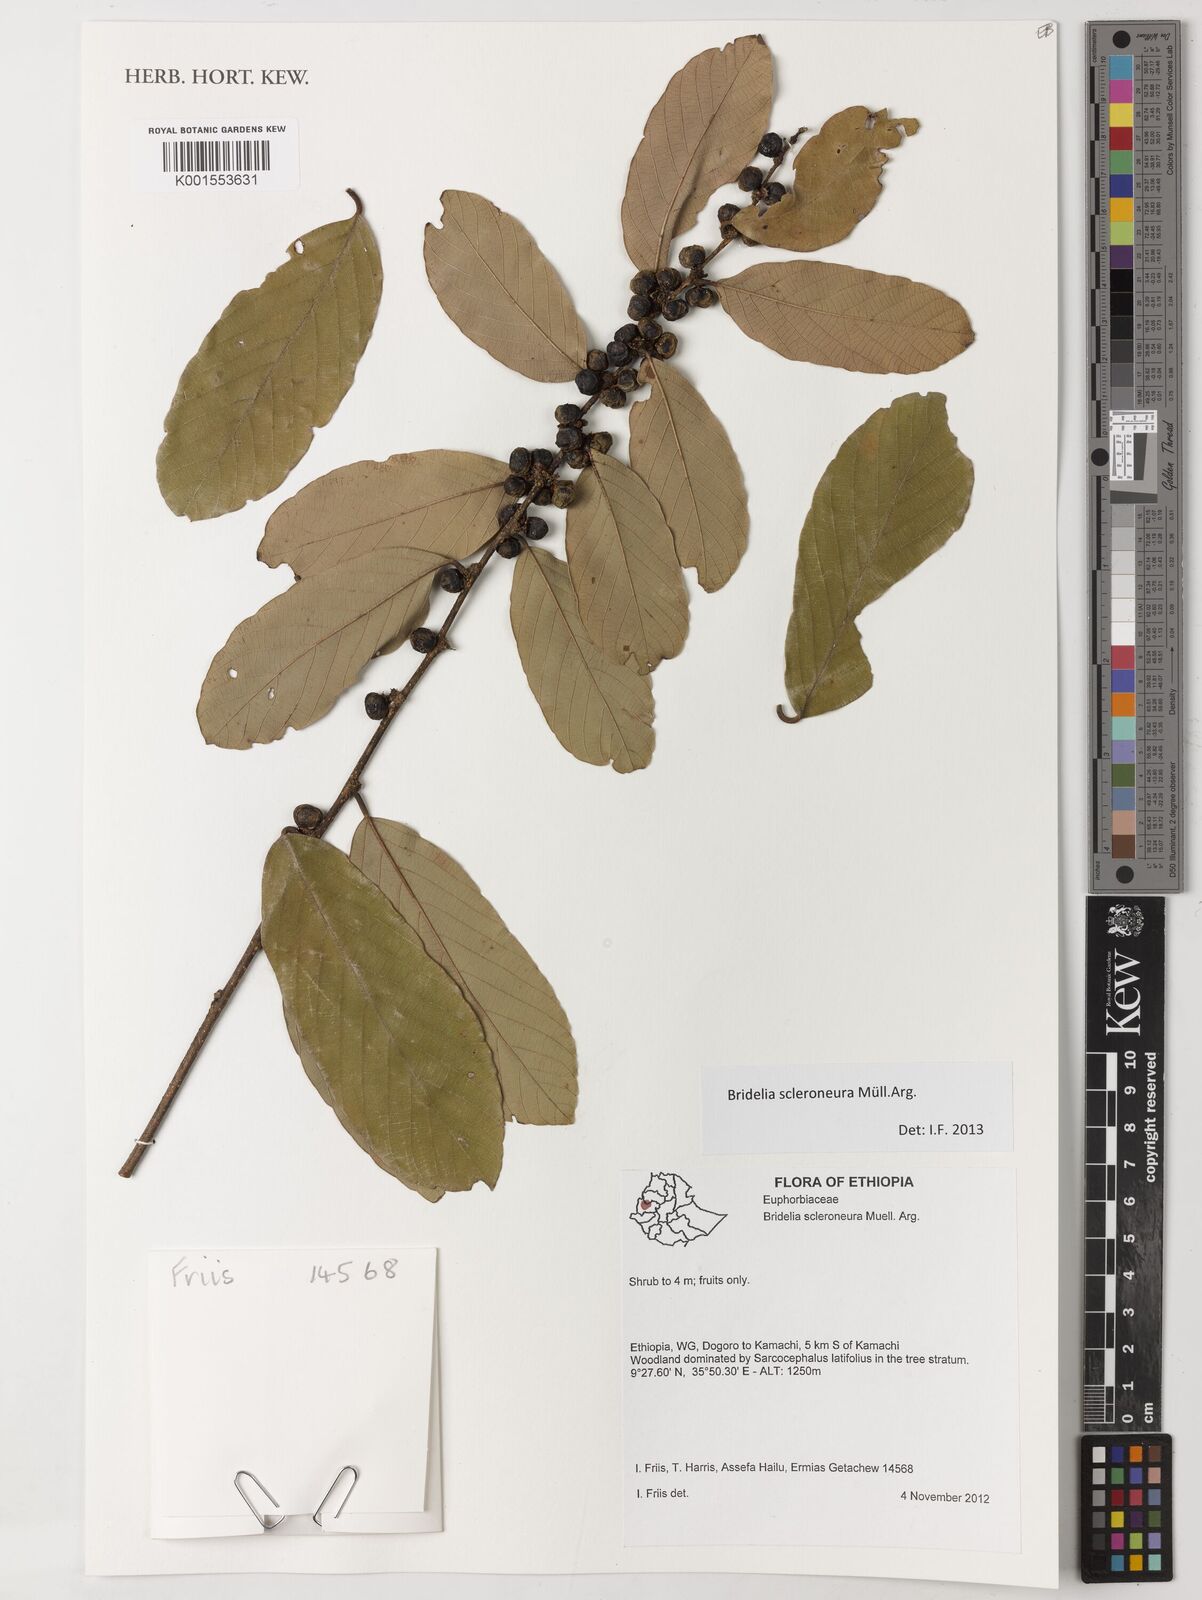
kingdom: Plantae
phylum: Tracheophyta
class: Magnoliopsida
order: Malpighiales
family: Phyllanthaceae
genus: Bridelia
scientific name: Bridelia scleroneura
